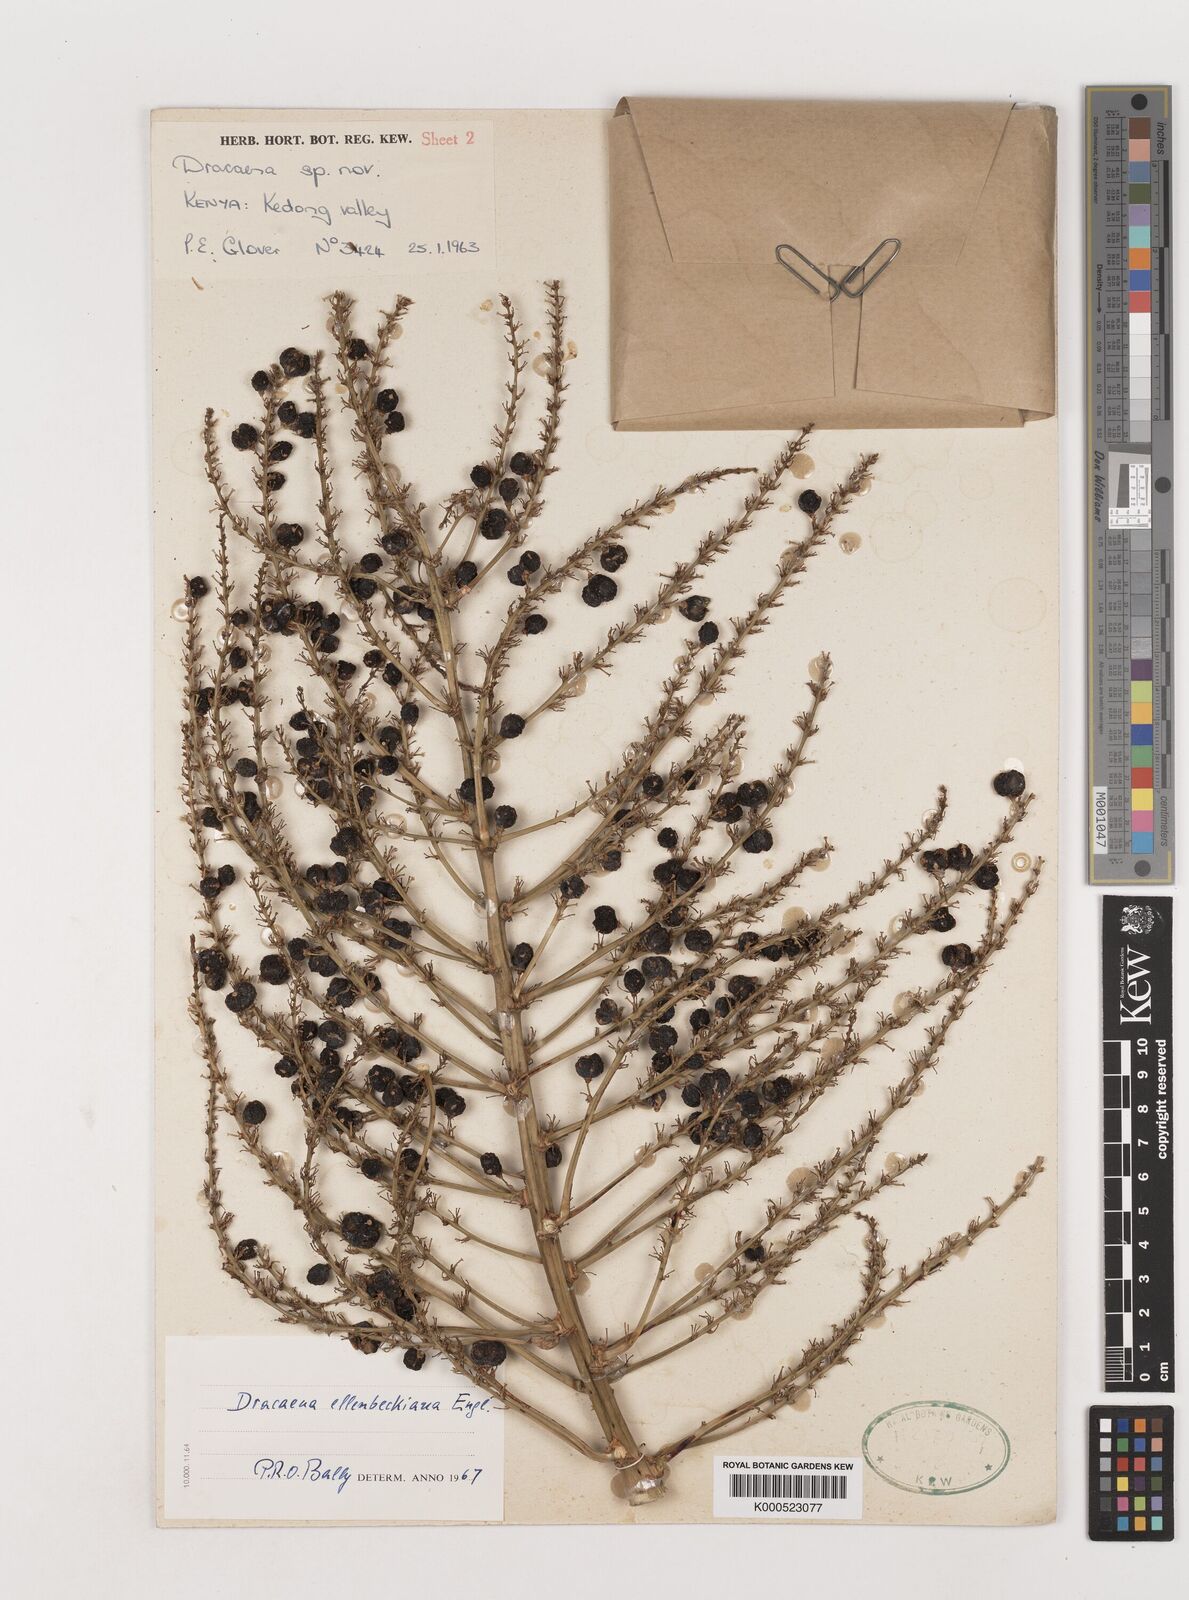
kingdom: Plantae
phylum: Tracheophyta
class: Liliopsida
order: Asparagales
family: Asparagaceae
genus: Dracaena
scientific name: Dracaena ellenbeckiana
